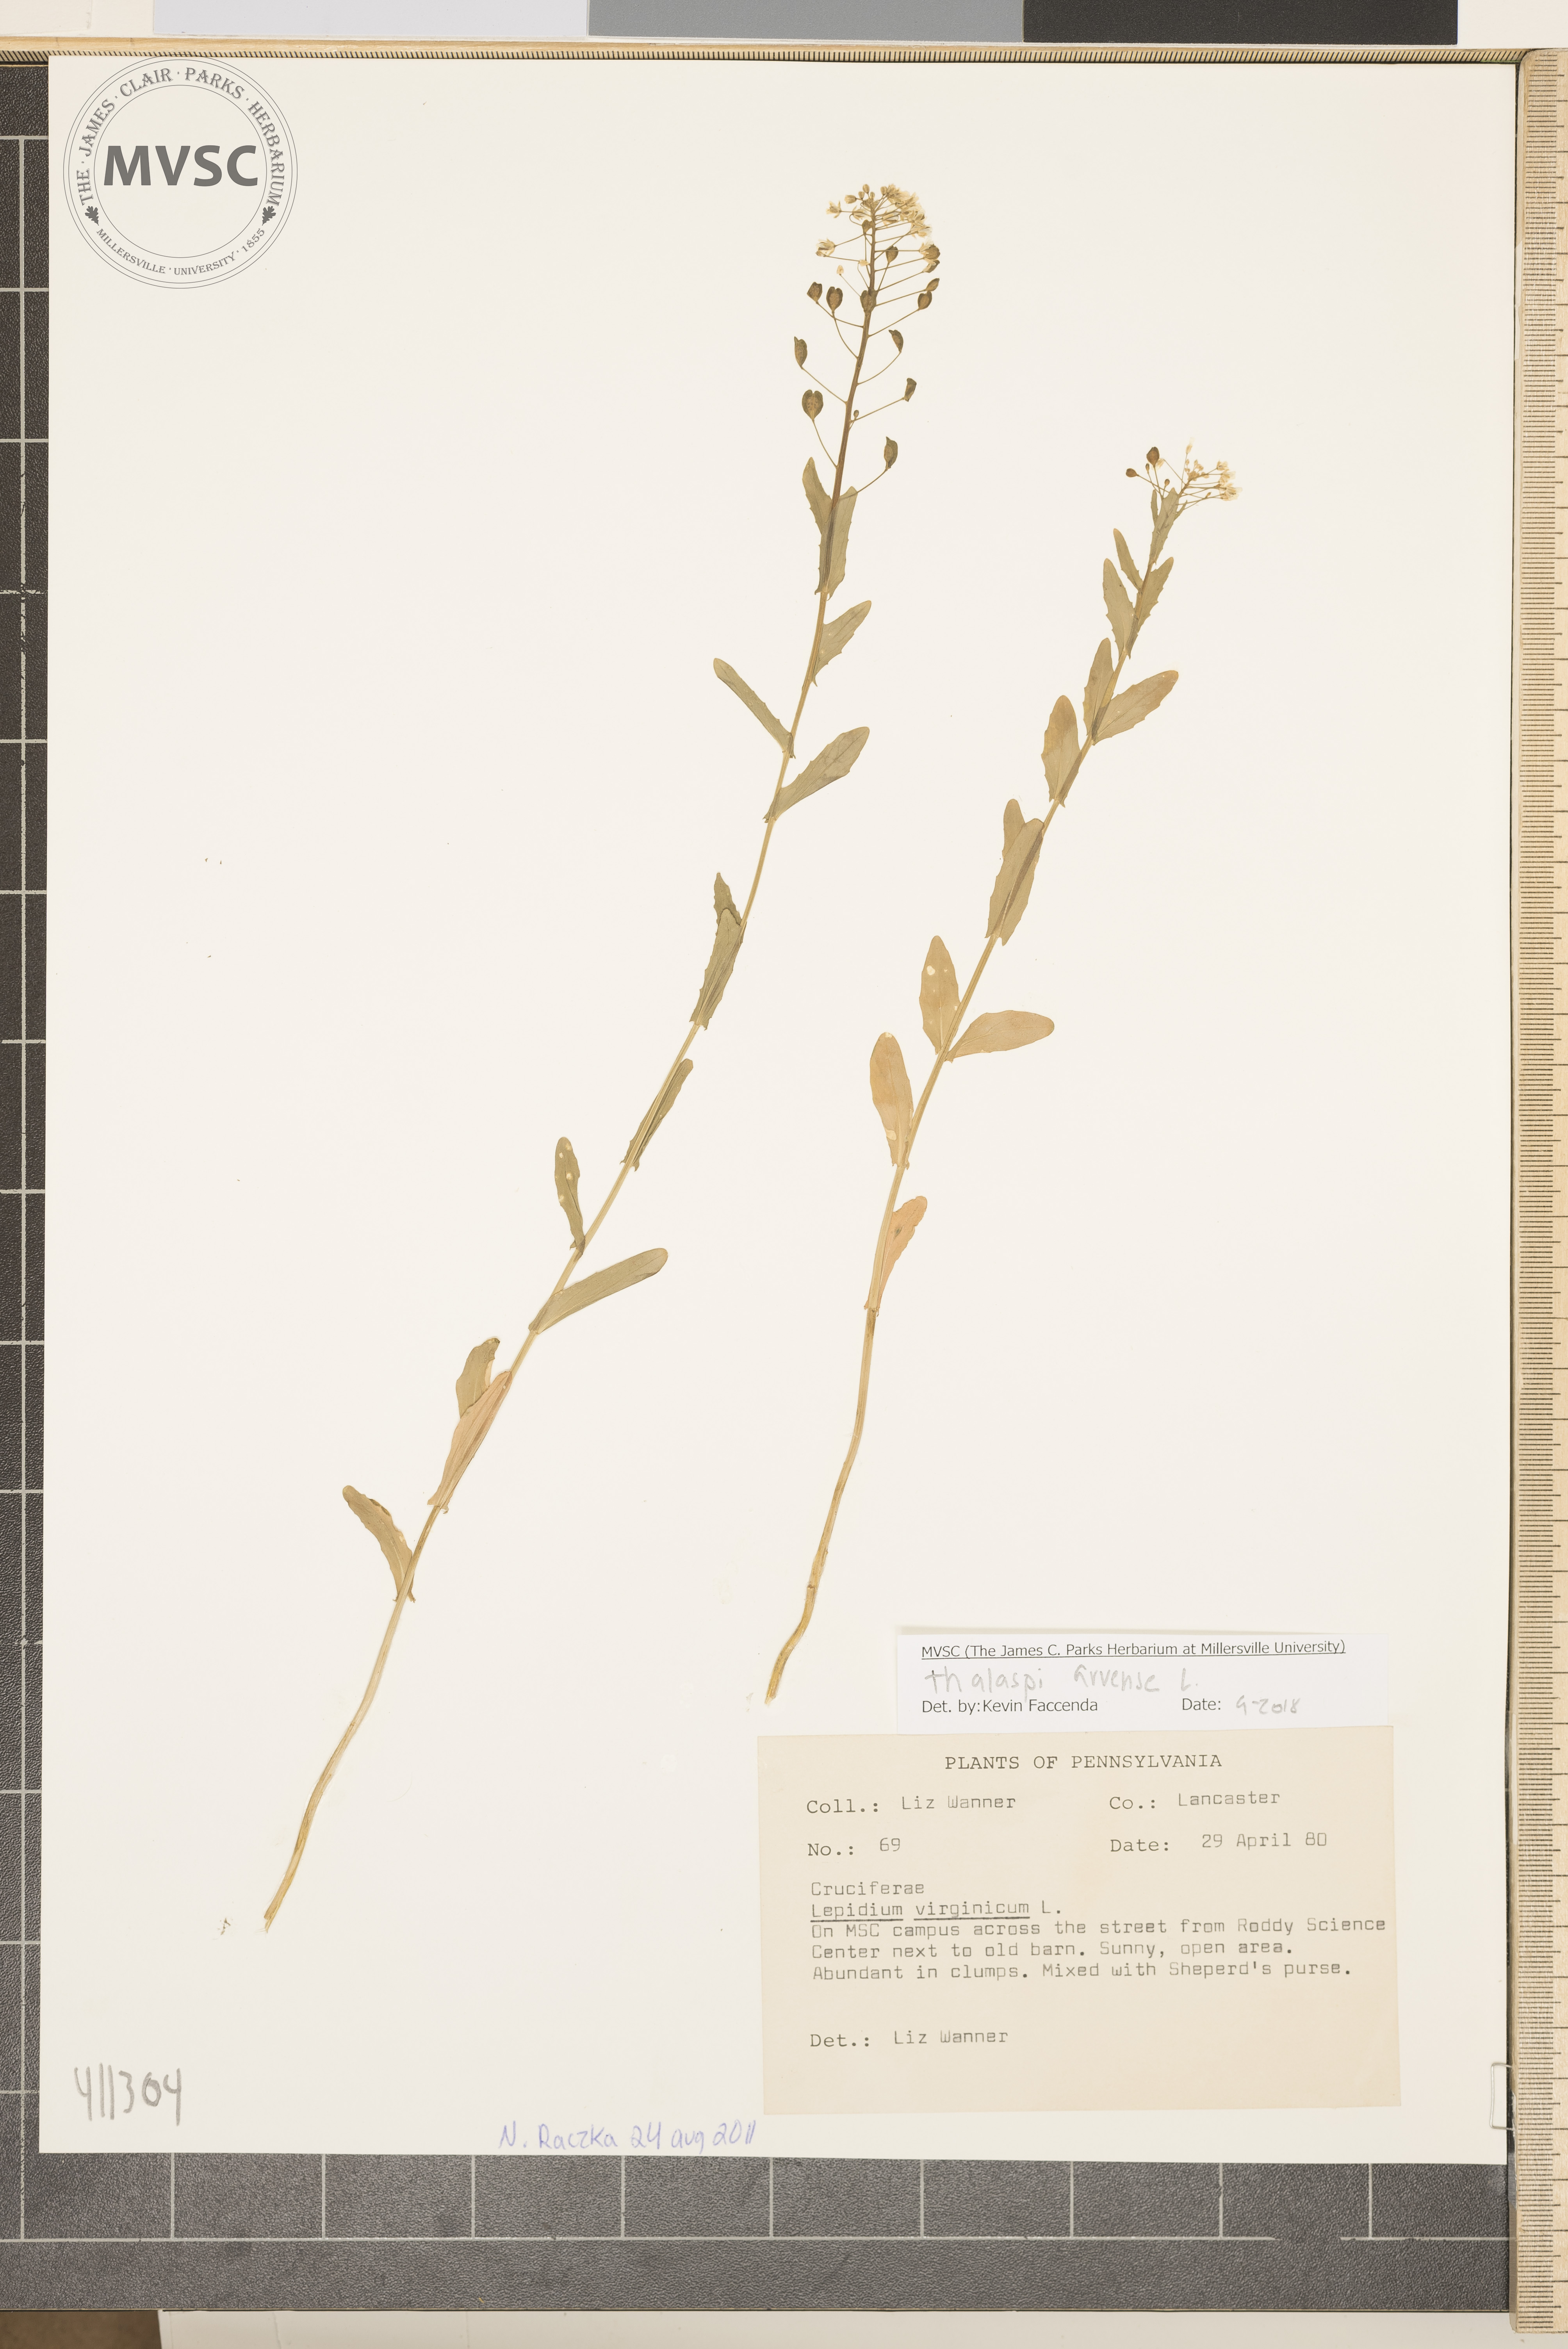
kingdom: Plantae
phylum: Tracheophyta
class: Magnoliopsida
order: Brassicales
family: Brassicaceae
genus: Thlaspi
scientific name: Thlaspi arvense
